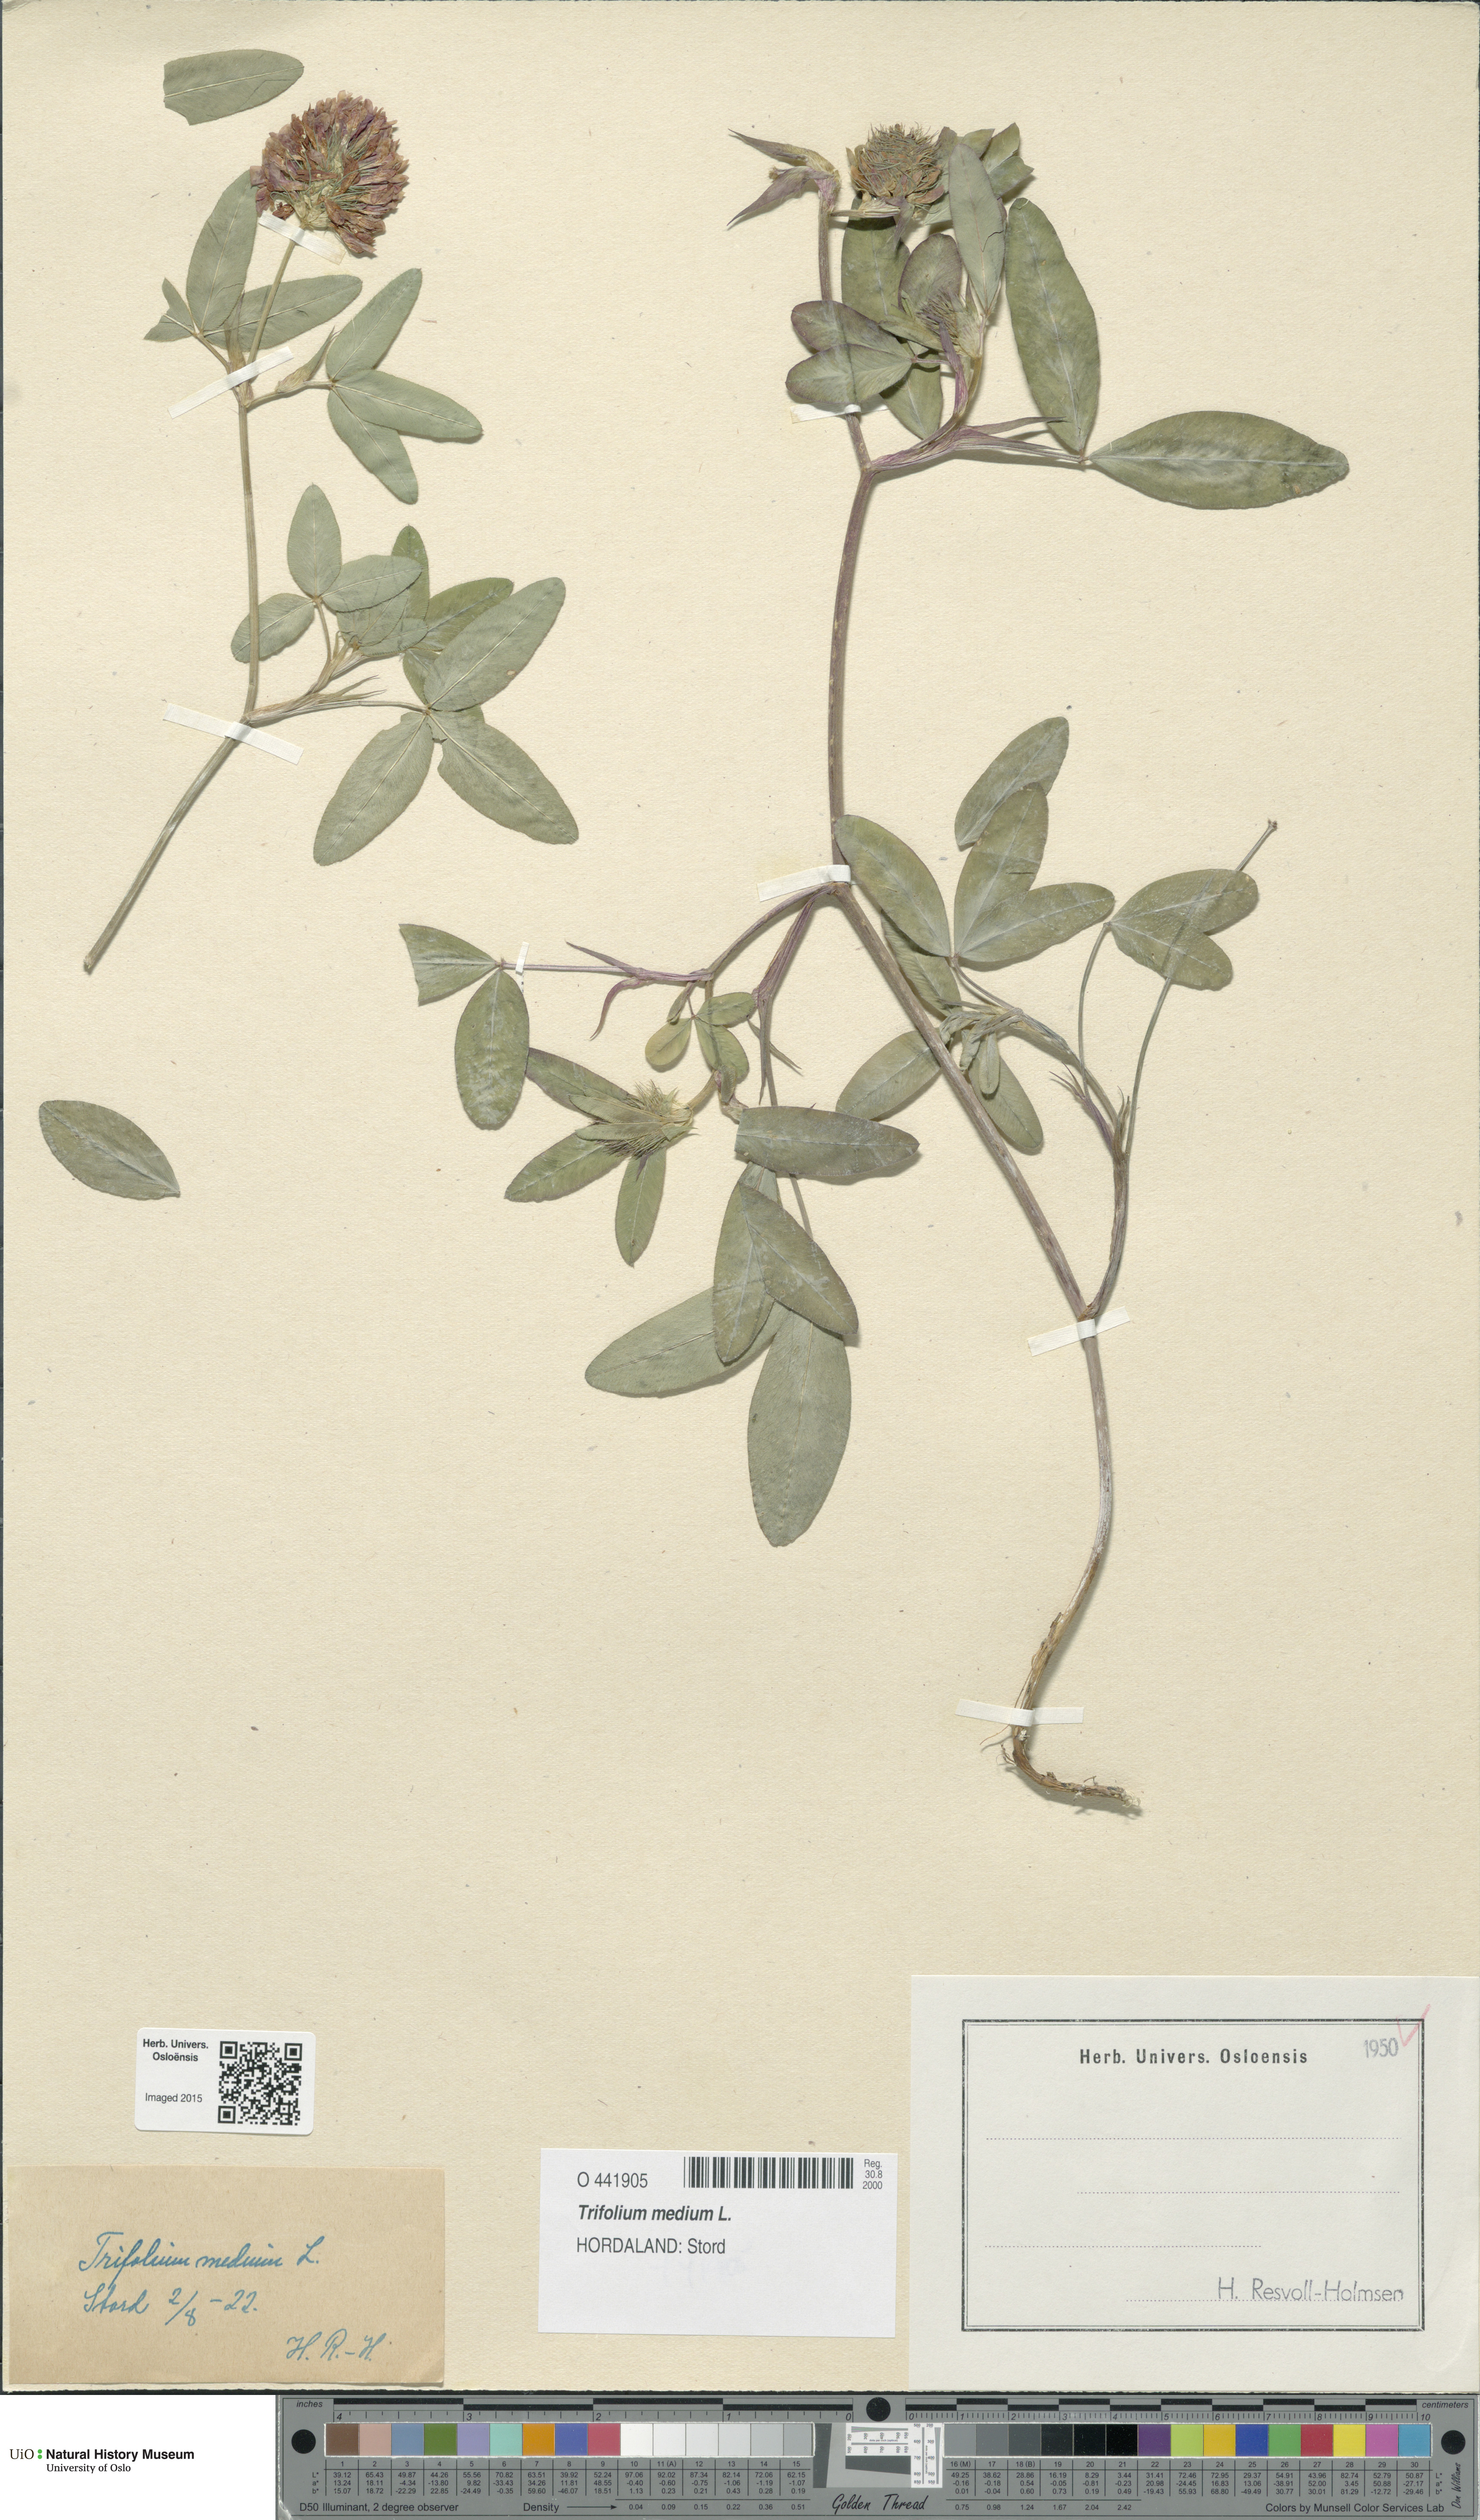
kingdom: Plantae
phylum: Tracheophyta
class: Magnoliopsida
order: Fabales
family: Fabaceae
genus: Trifolium
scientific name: Trifolium medium
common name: Zigzag clover
